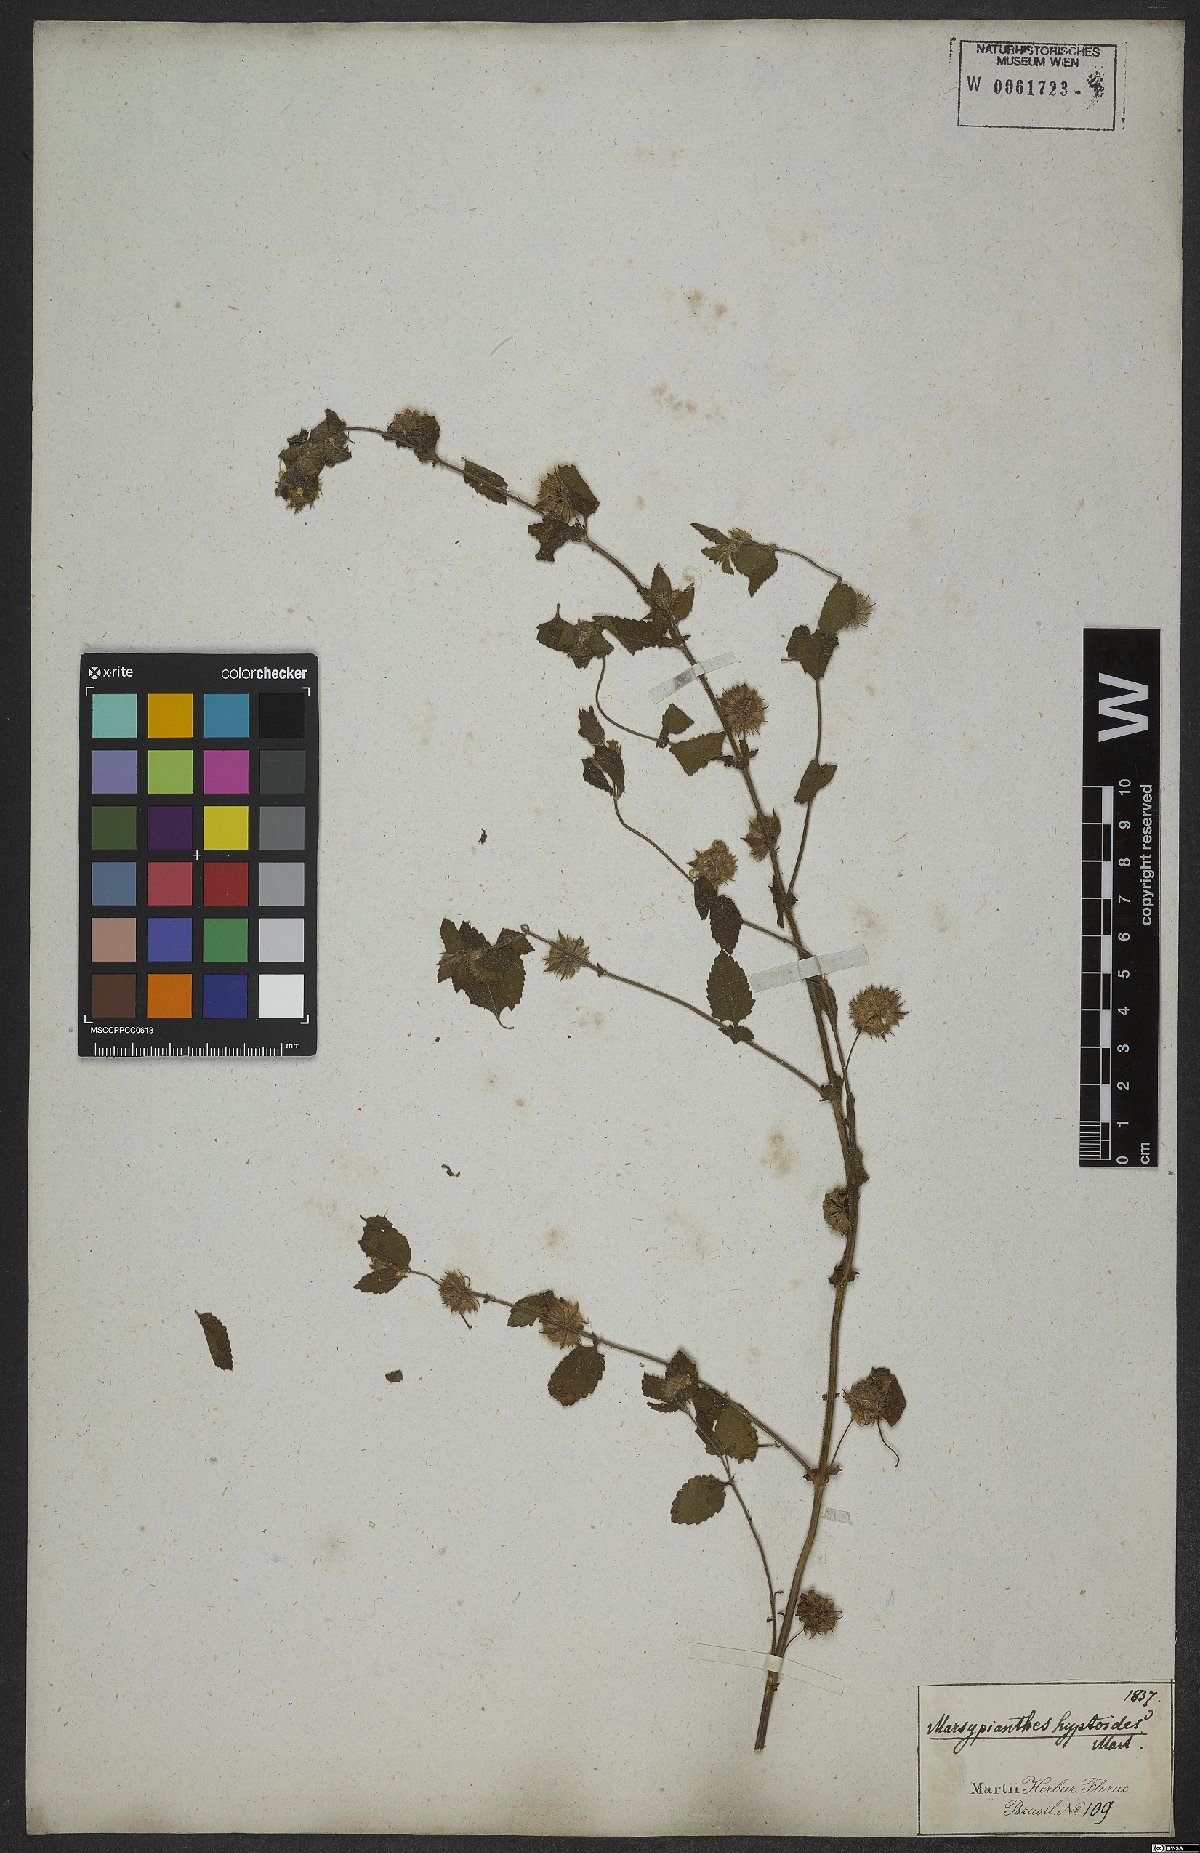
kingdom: Plantae
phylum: Tracheophyta
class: Magnoliopsida
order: Lamiales
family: Lamiaceae
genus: Marsypianthes
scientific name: Marsypianthes chamaedrys
